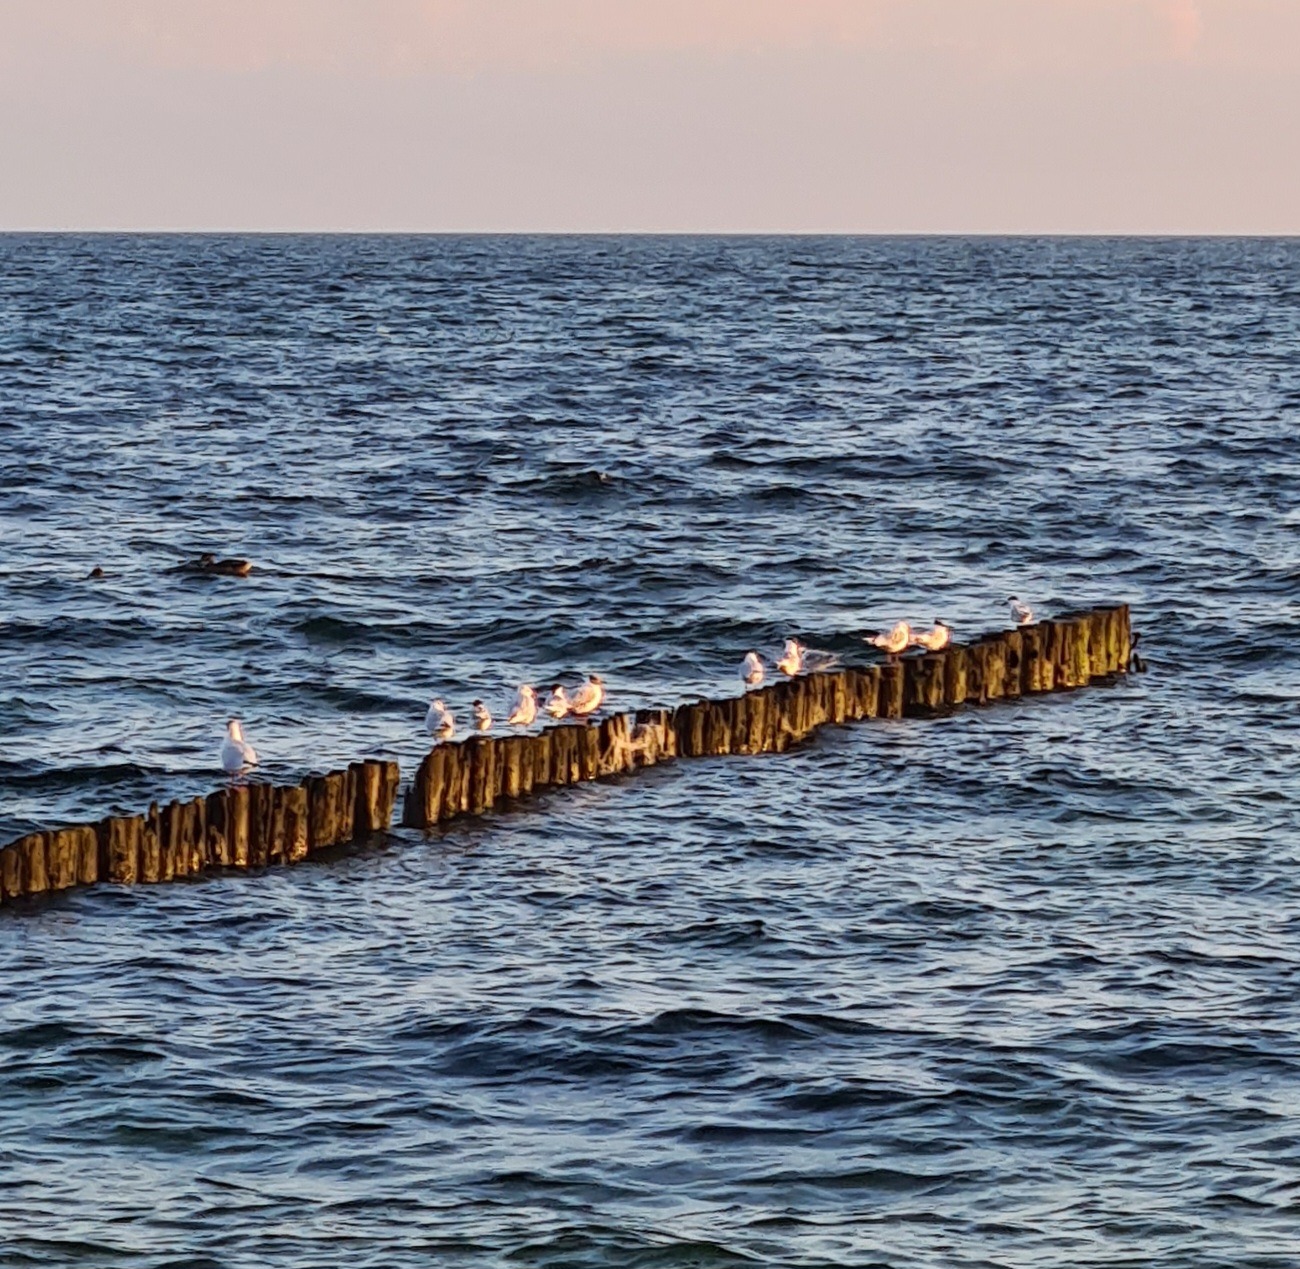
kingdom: Animalia
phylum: Chordata
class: Aves
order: Charadriiformes
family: Laridae
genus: Thalasseus
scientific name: Thalasseus sandvicensis
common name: Splitterne
